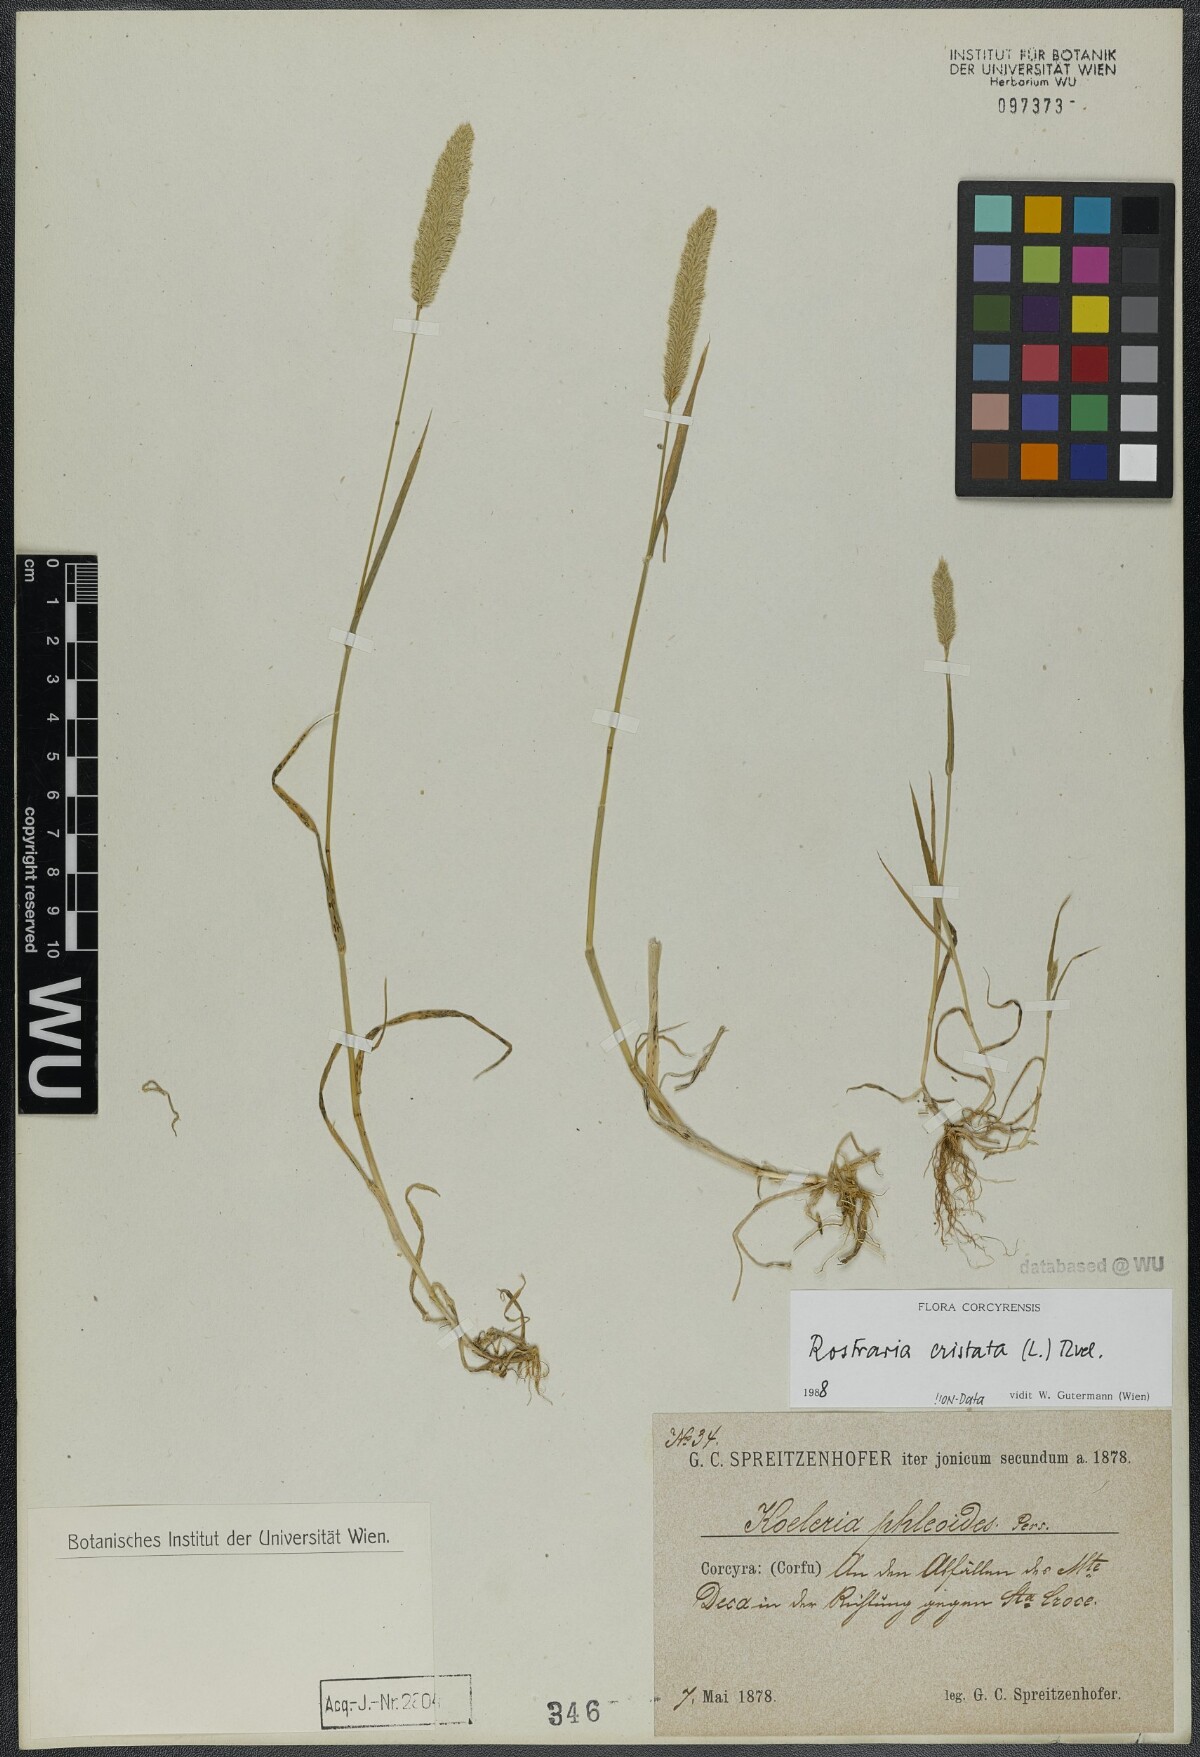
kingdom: Plantae
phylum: Tracheophyta
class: Liliopsida
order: Poales
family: Poaceae
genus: Rostraria
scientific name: Rostraria cristata
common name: Mediterranean hair-grass
